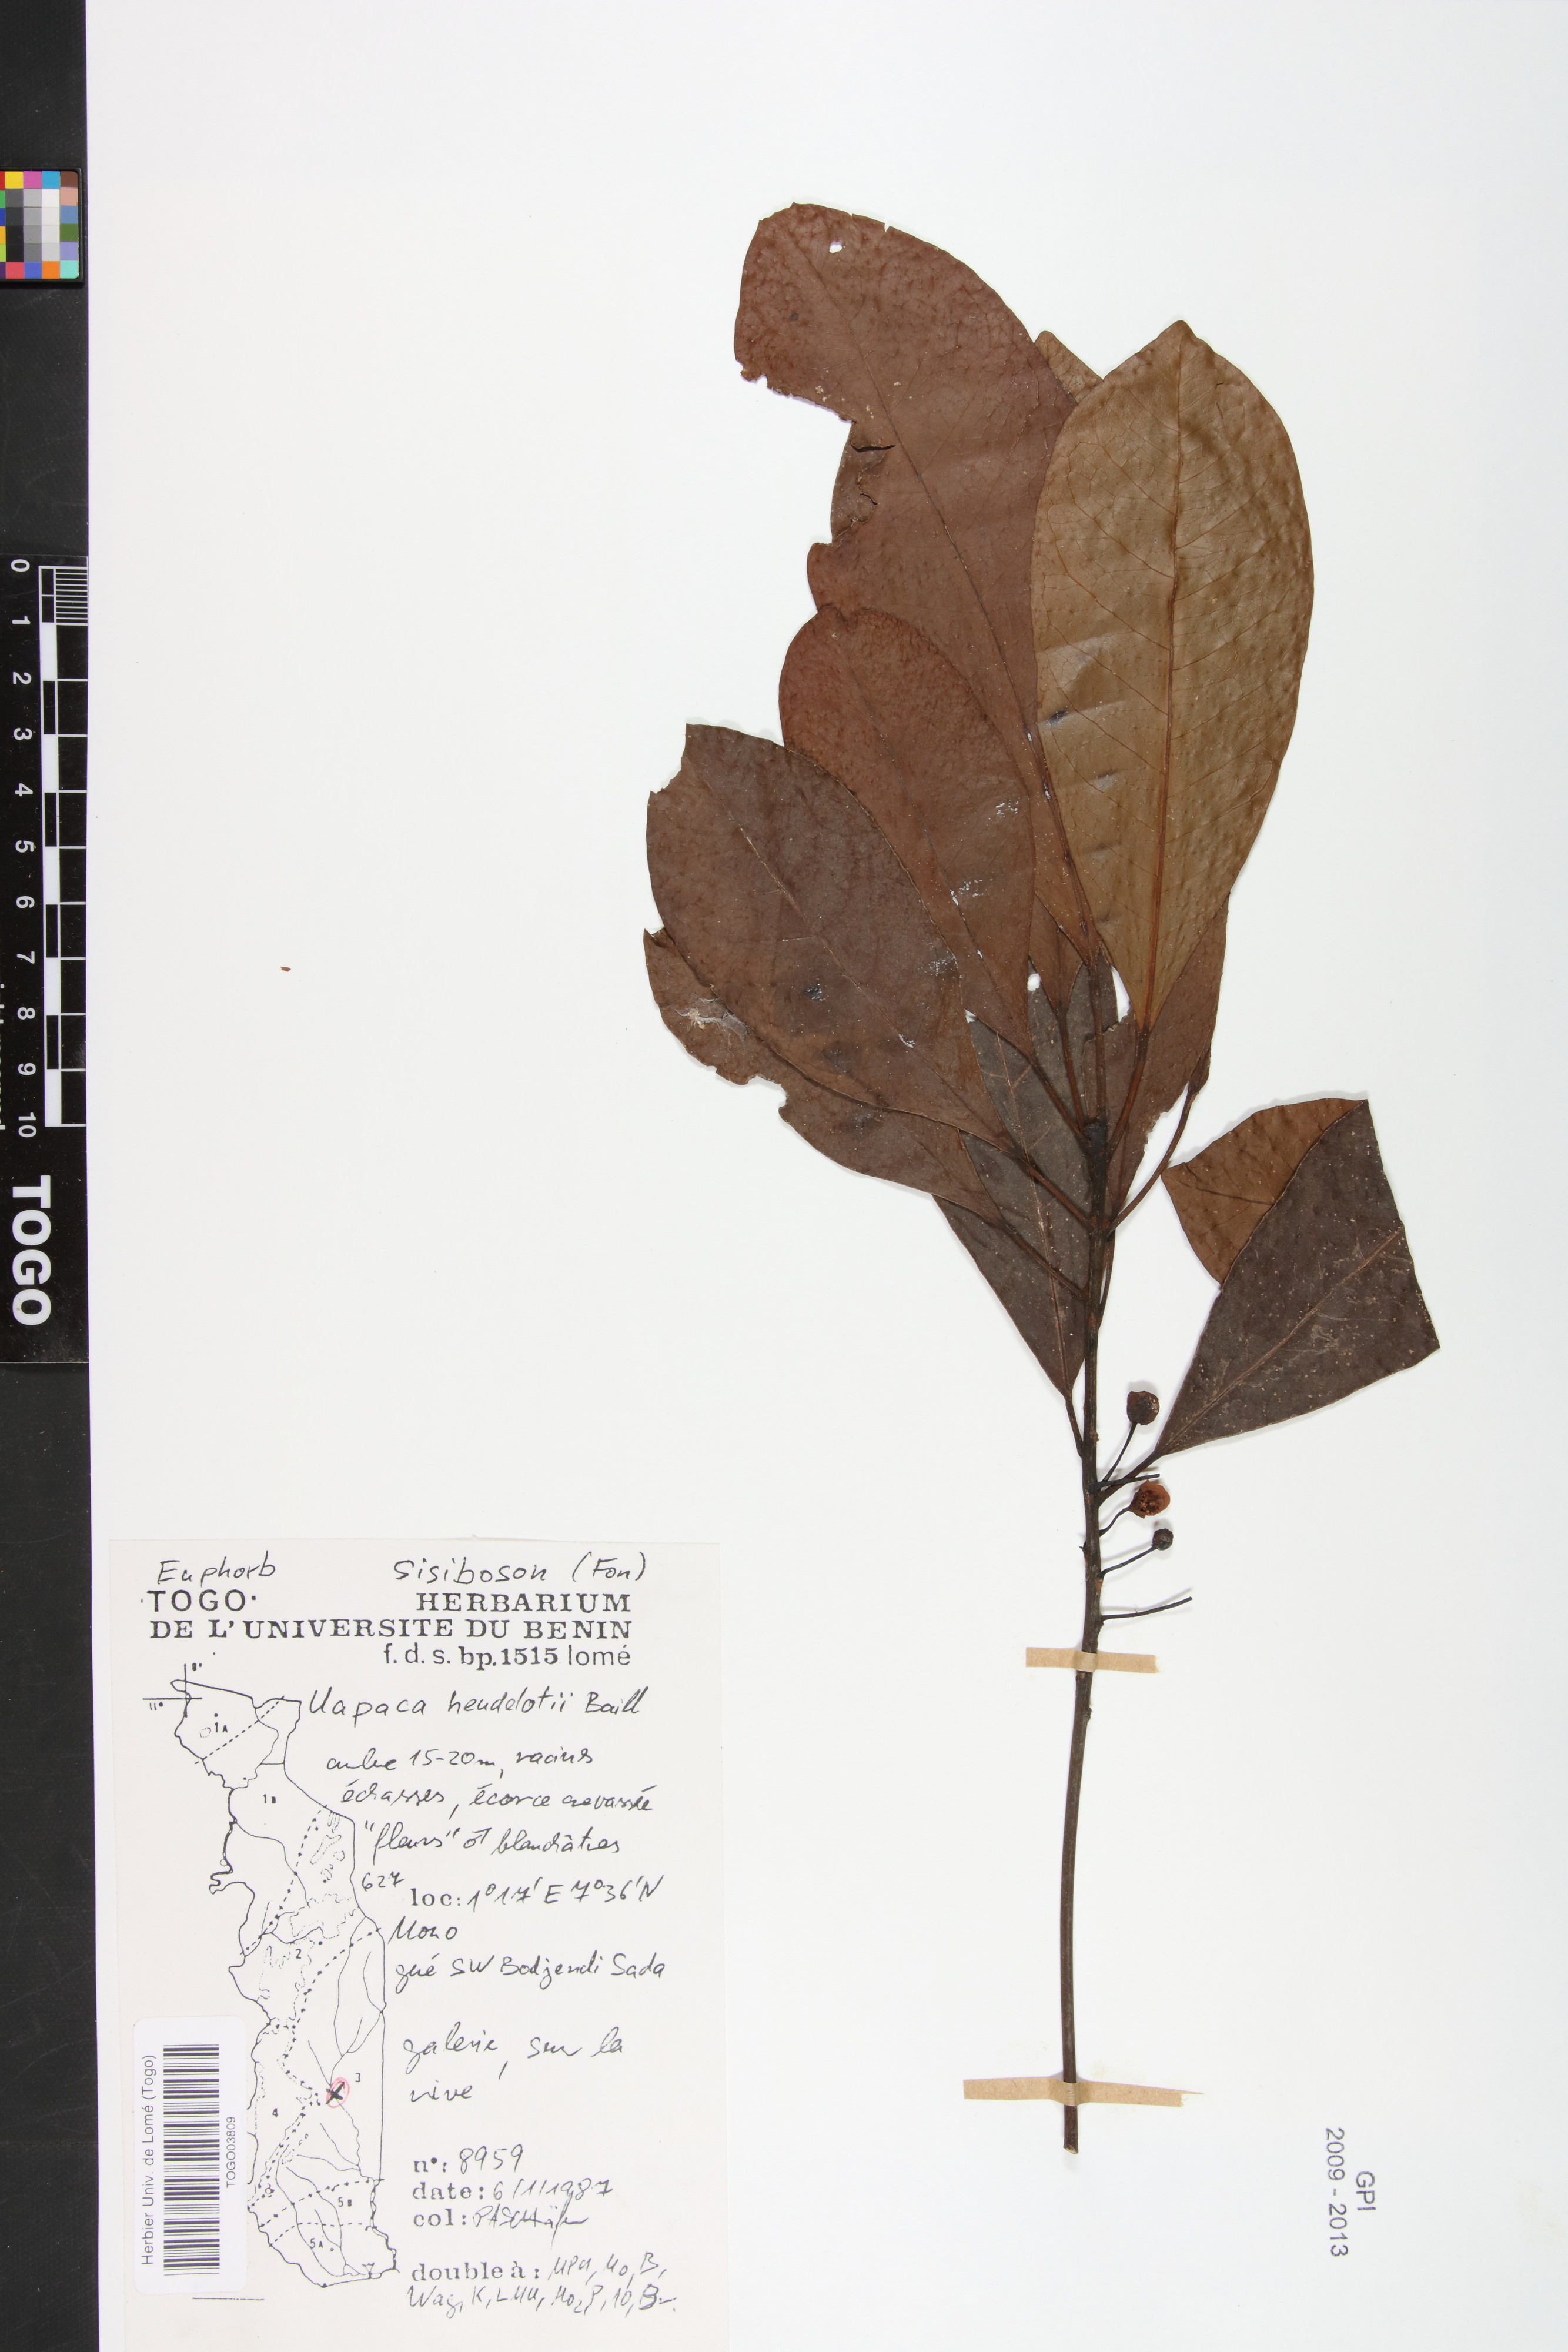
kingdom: Plantae
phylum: Tracheophyta
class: Magnoliopsida
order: Malpighiales
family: Phyllanthaceae
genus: Uapaca
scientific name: Uapaca heudelotii
